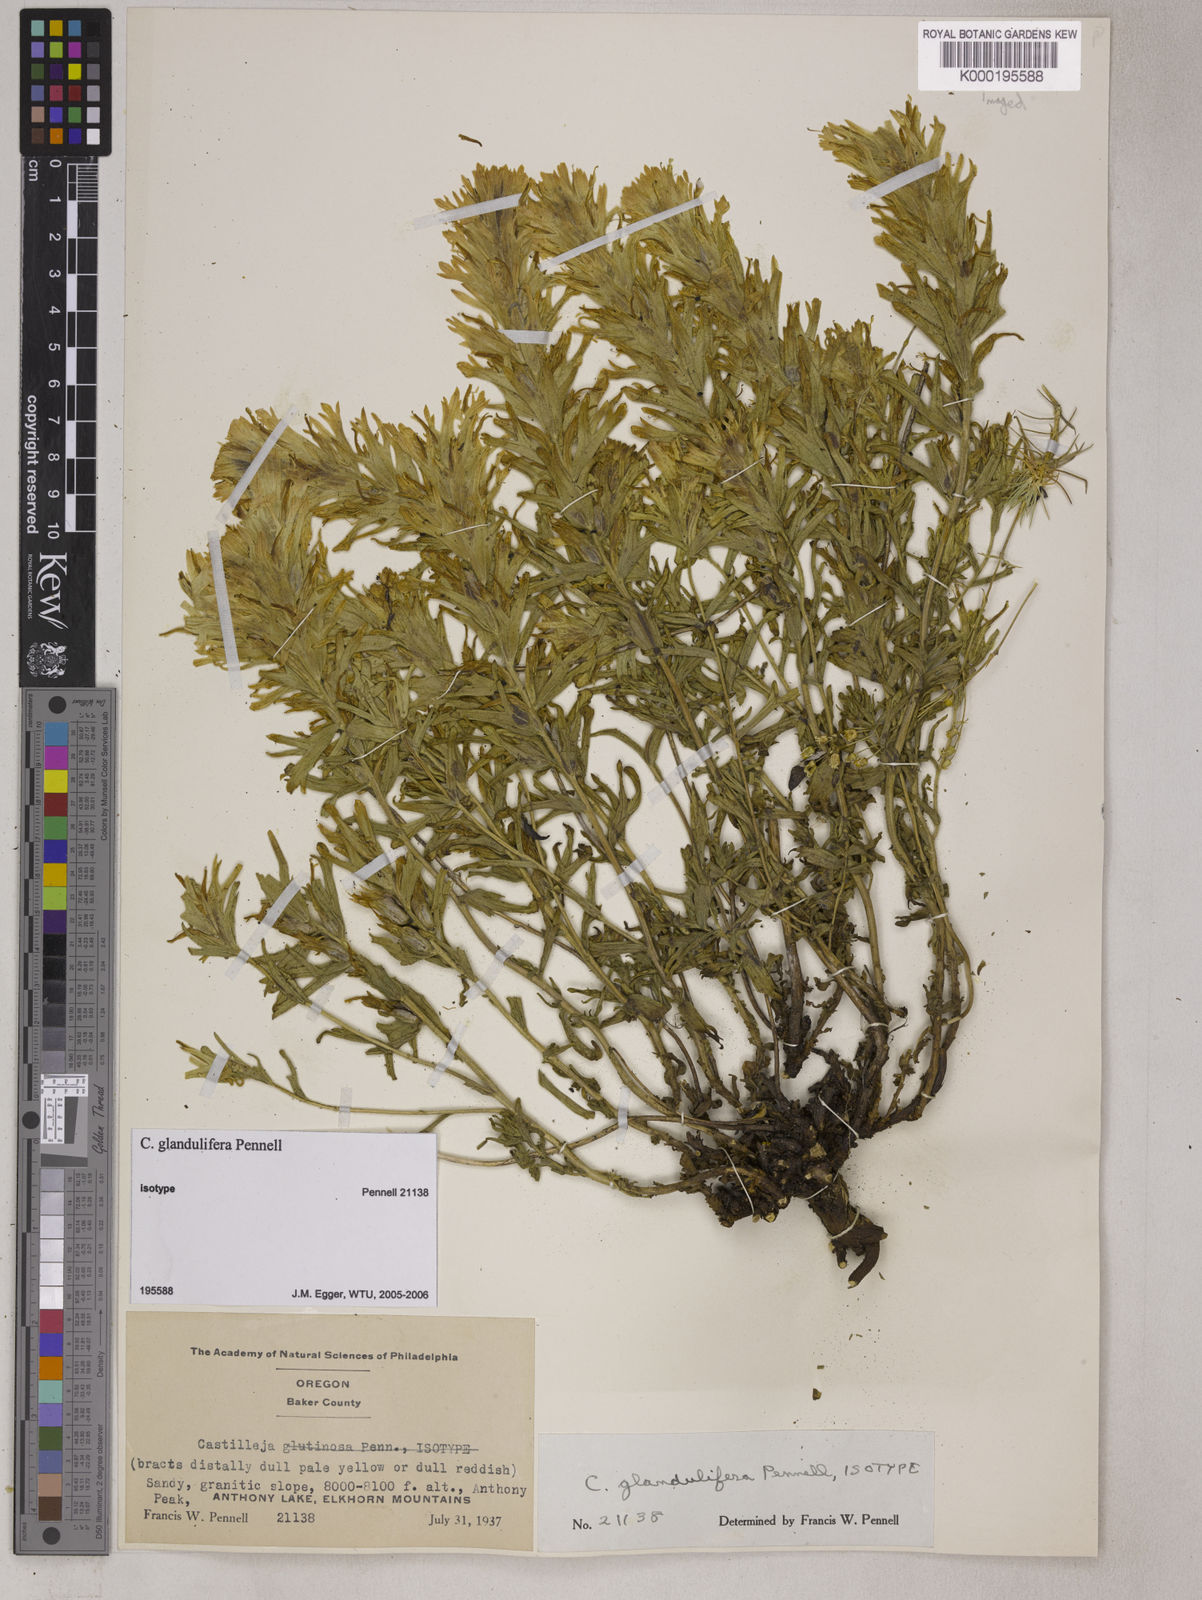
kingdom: Plantae
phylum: Tracheophyta
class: Magnoliopsida
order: Lamiales
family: Orobanchaceae
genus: Castilleja
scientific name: Castilleja glandulifera
